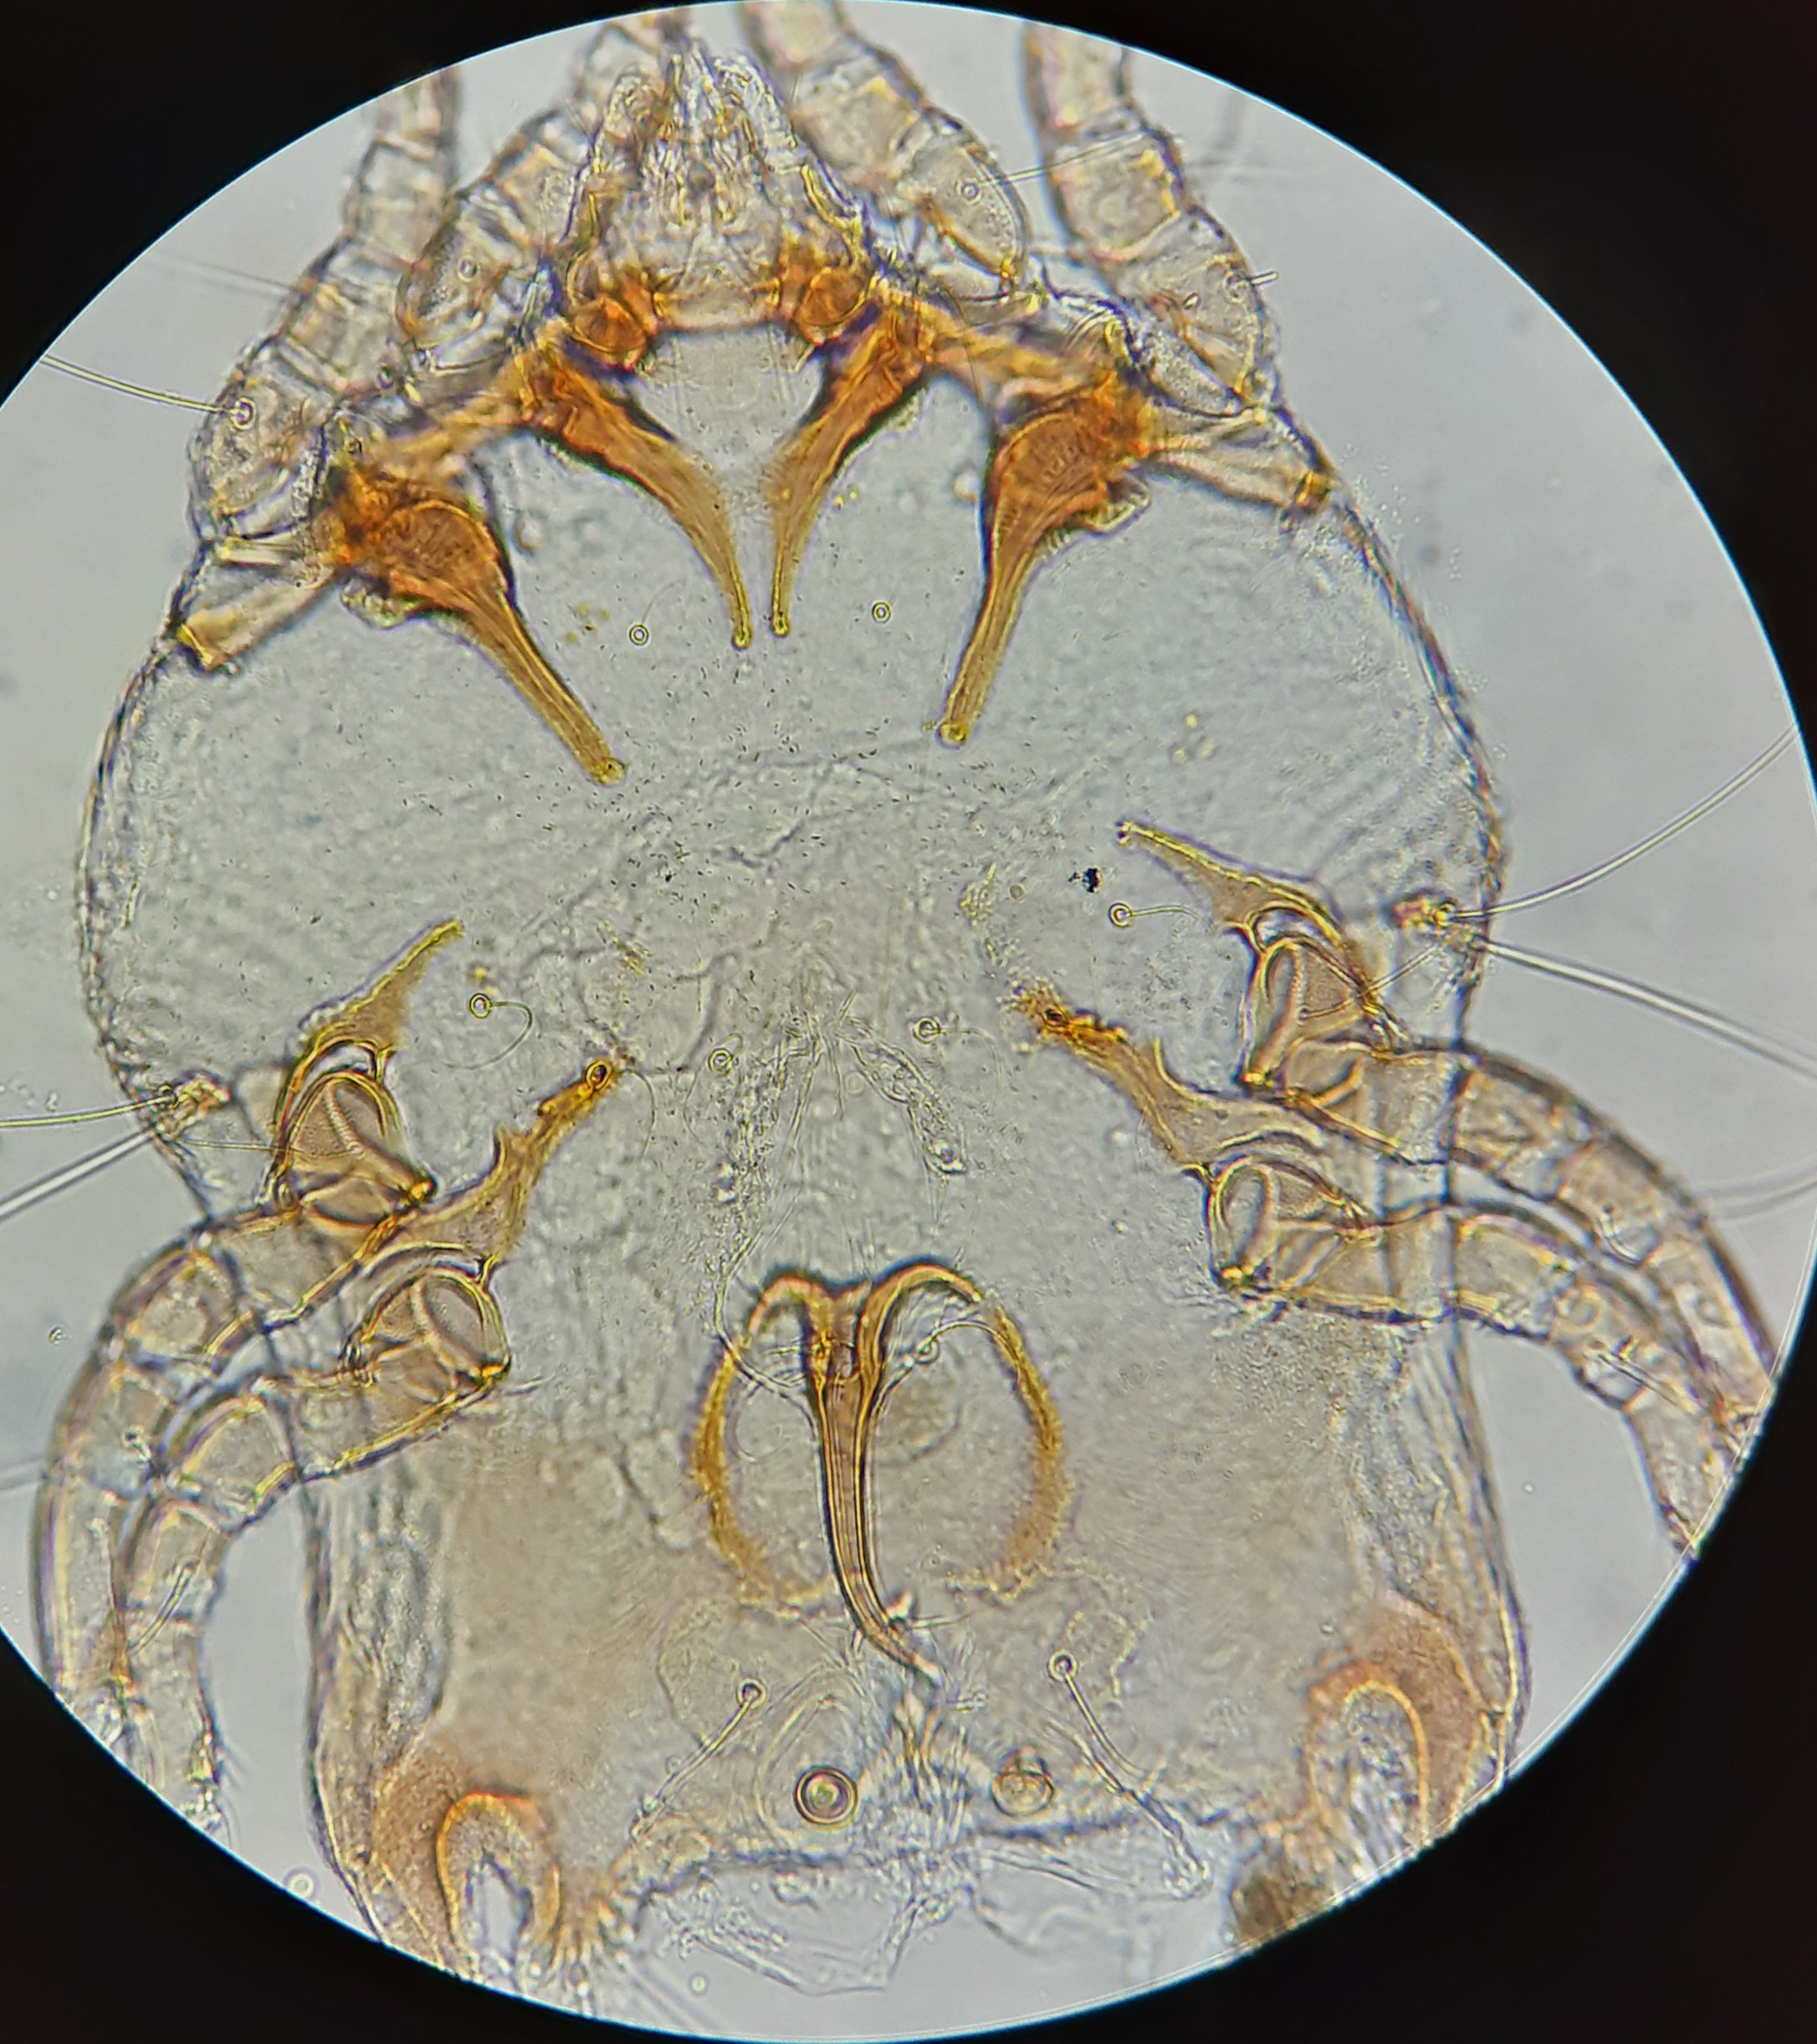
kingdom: Animalia
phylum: Arthropoda
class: Arachnida
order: Sarcoptiformes
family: Kramerellidae
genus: Kramerella
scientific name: Kramerella oti
